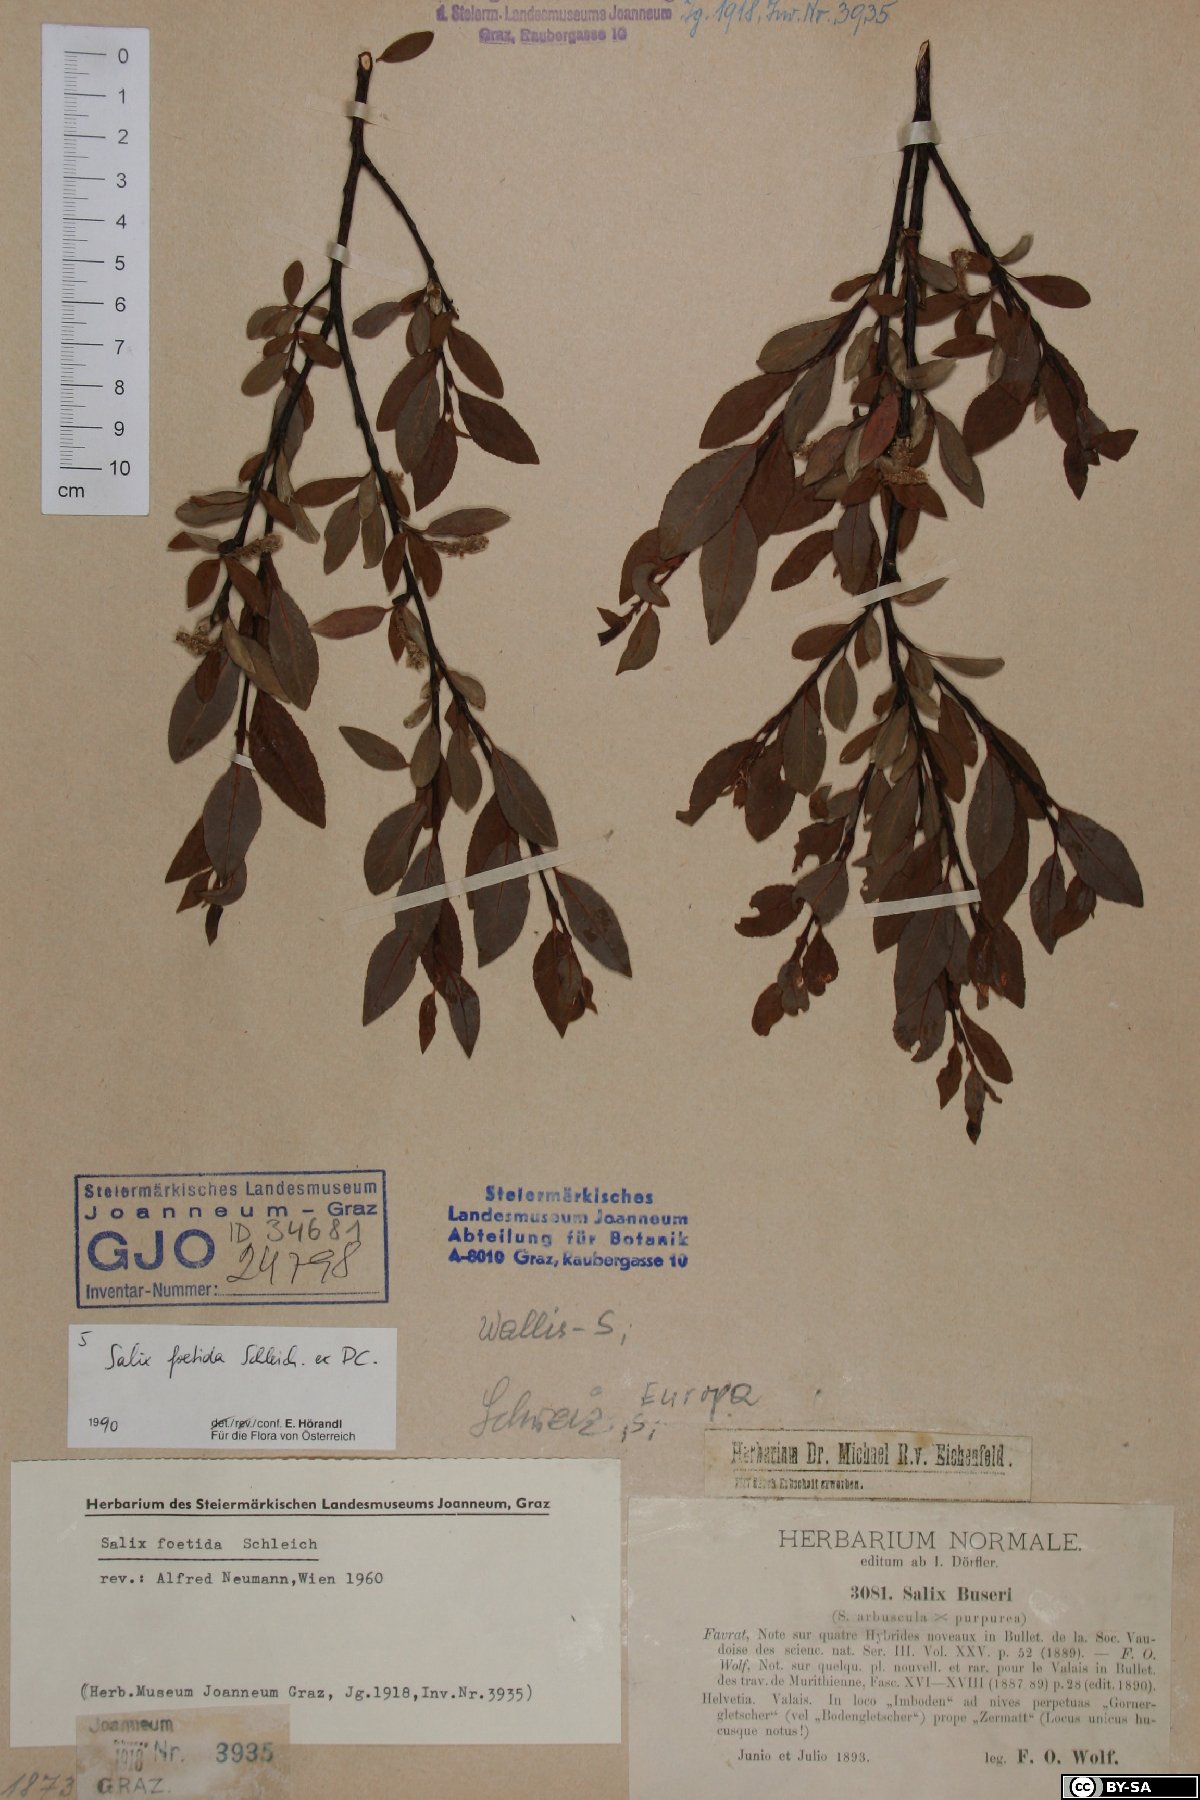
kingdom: Plantae
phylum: Tracheophyta
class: Magnoliopsida
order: Malpighiales
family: Salicaceae
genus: Salix
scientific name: Salix foetida
